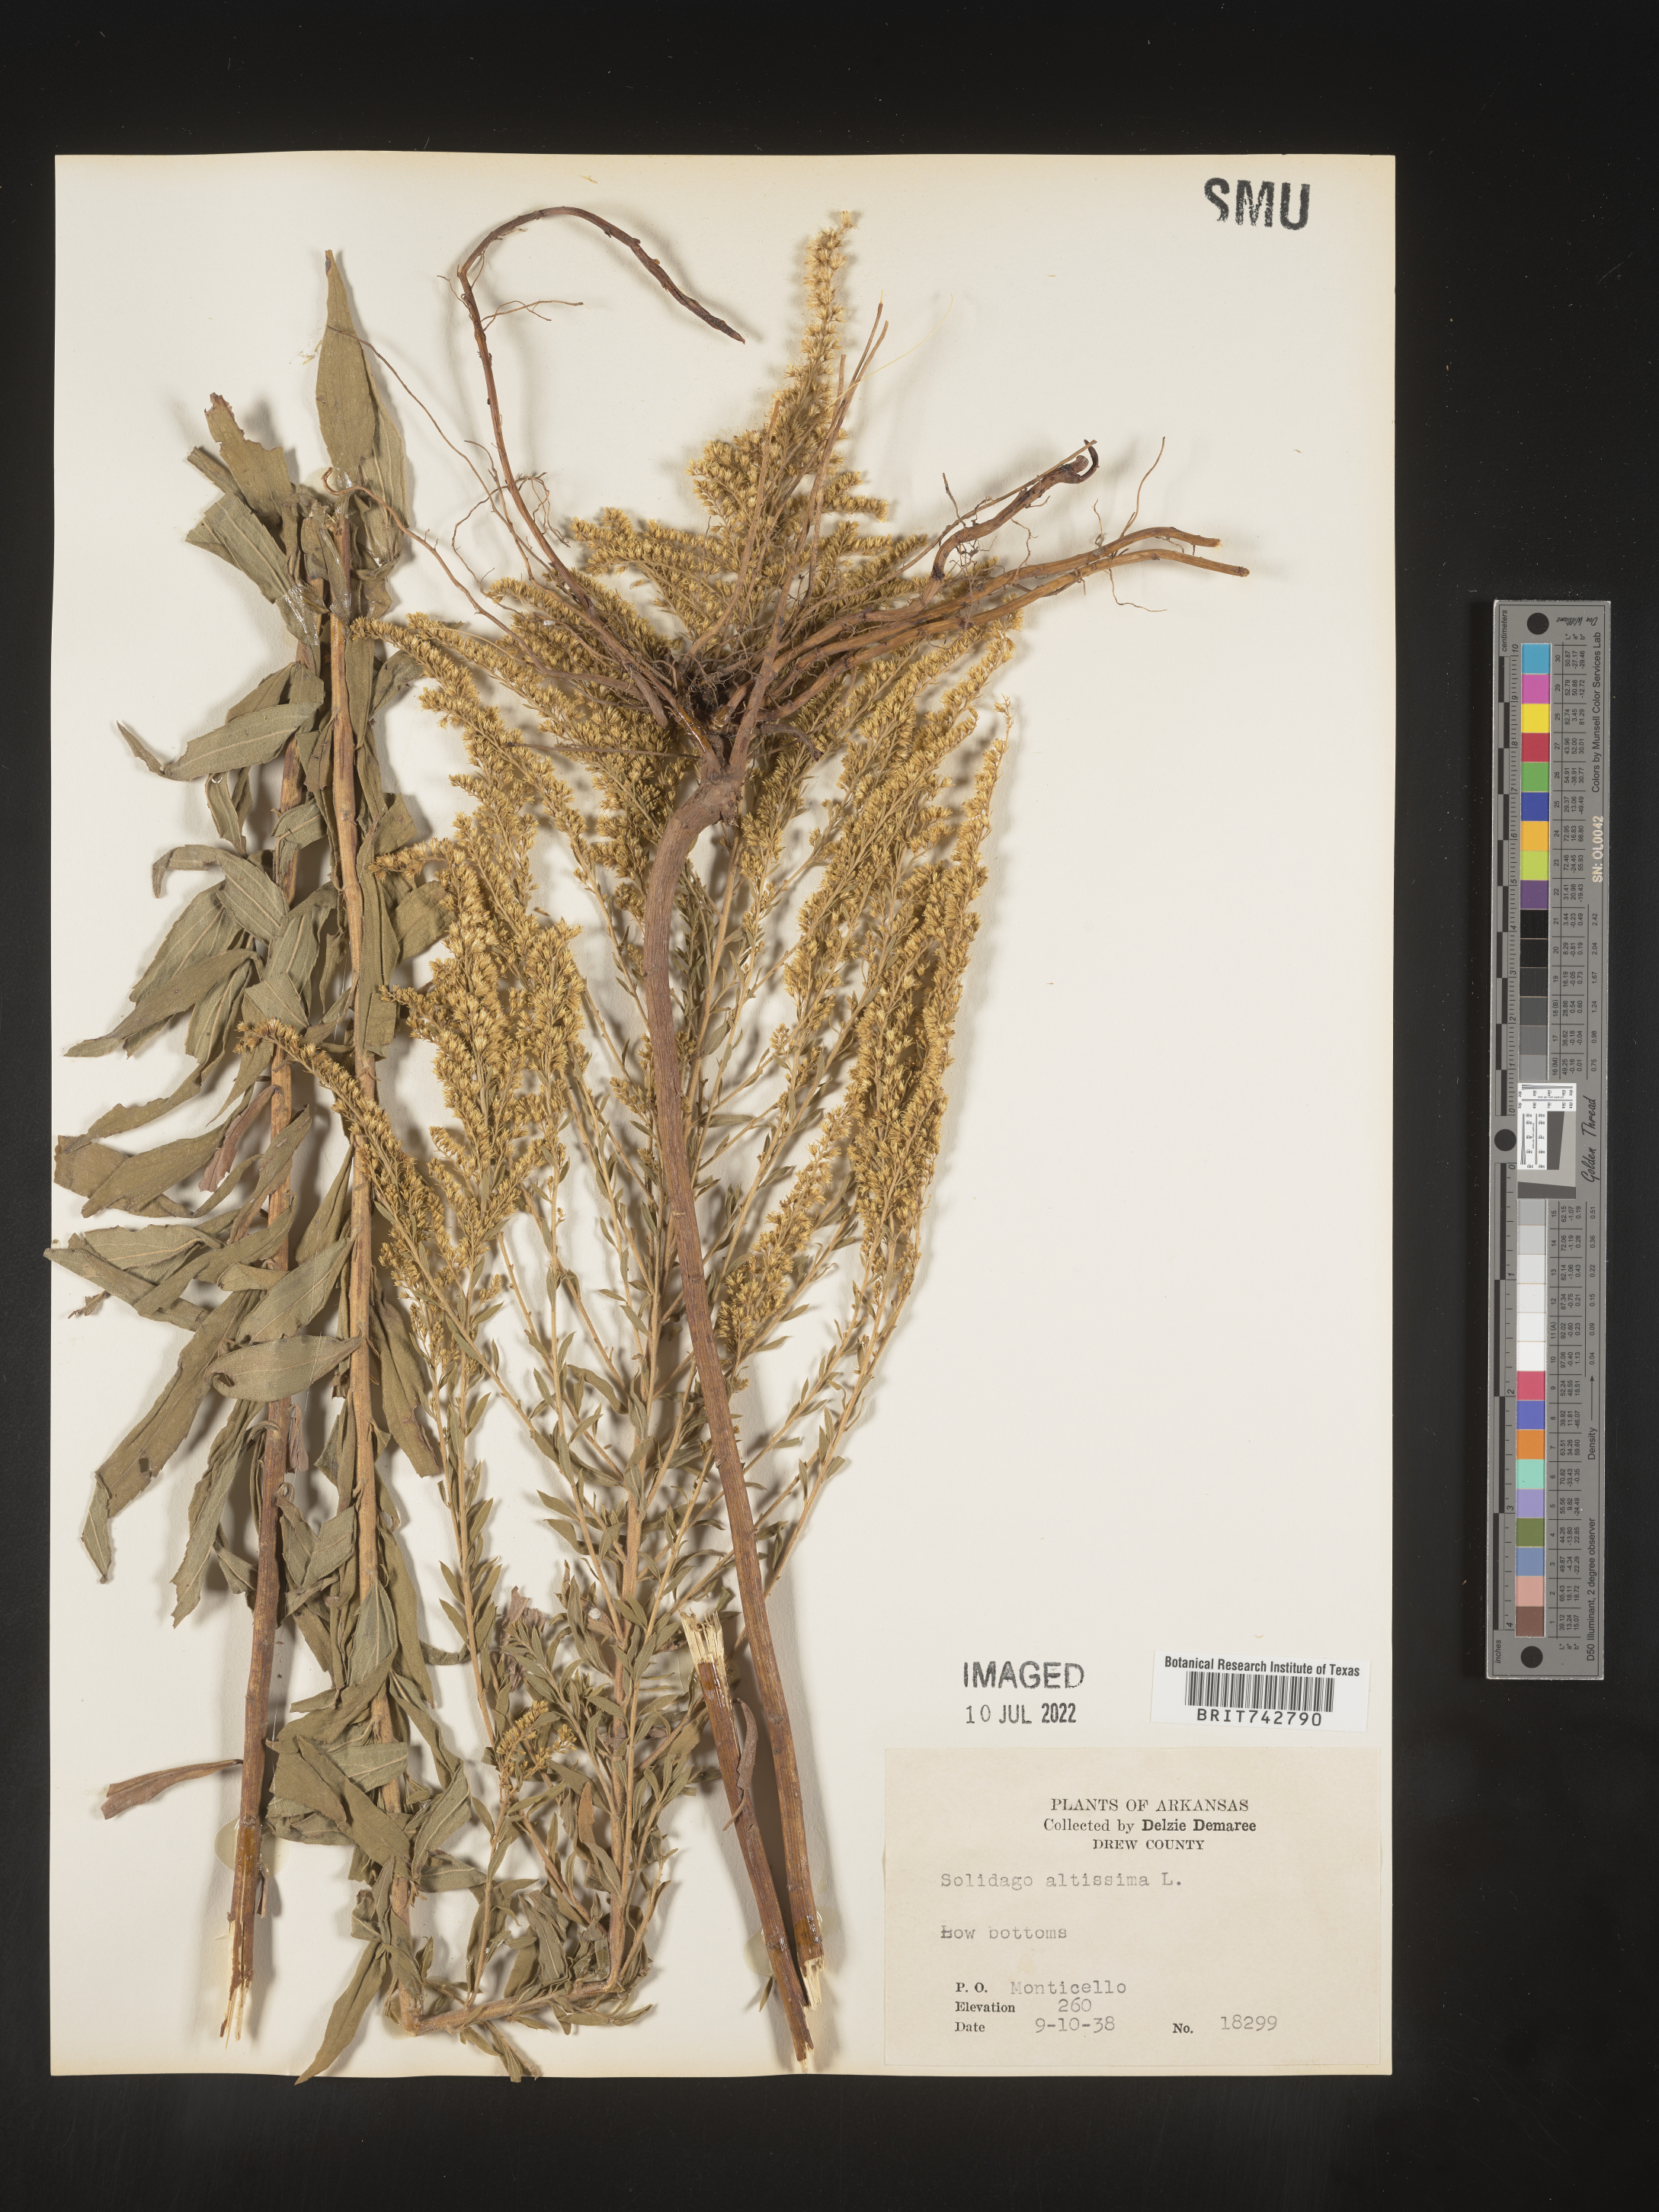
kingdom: Plantae
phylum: Tracheophyta
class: Magnoliopsida
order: Asterales
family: Asteraceae
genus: Solidago
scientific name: Solidago altissima
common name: Late goldenrod
